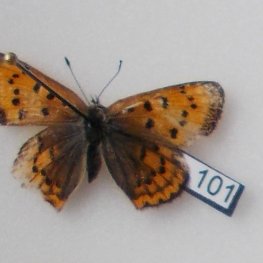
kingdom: Animalia
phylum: Arthropoda
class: Insecta
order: Lepidoptera
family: Sesiidae
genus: Sesia
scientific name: Sesia Lycaena helloides
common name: Purplish Copper
